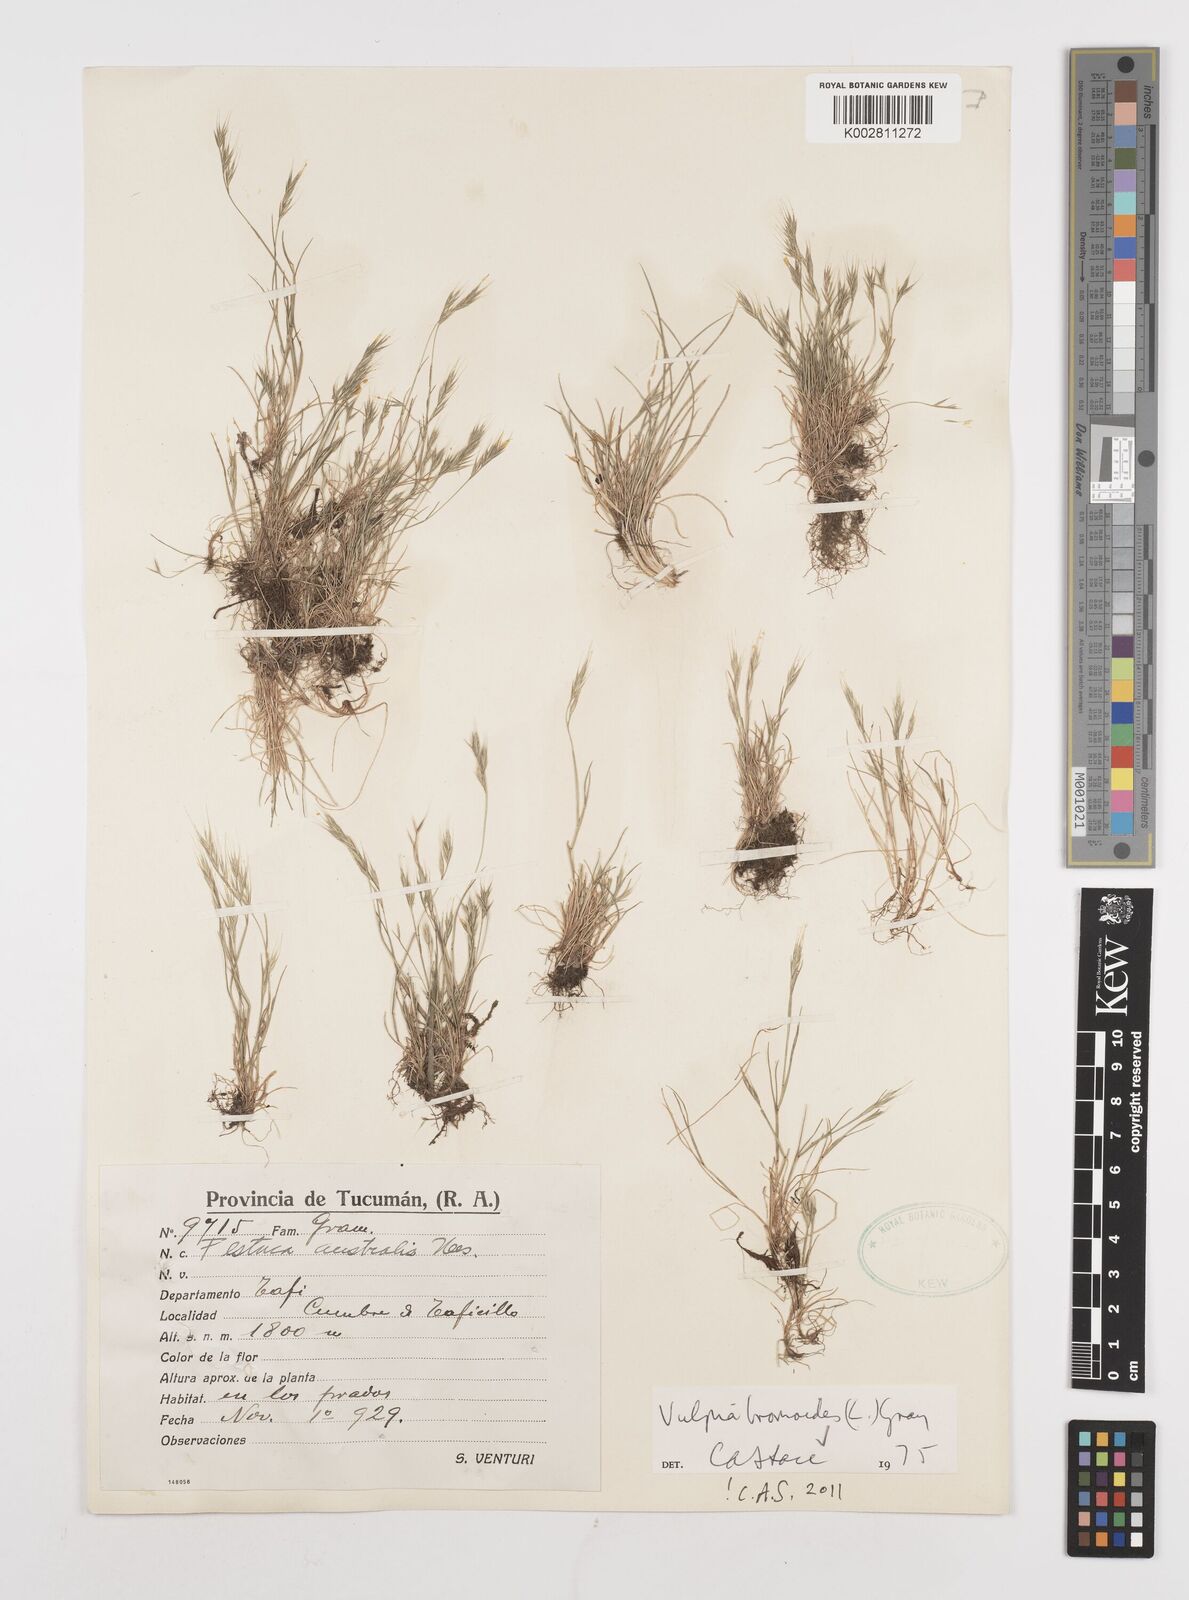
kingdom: Plantae
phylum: Tracheophyta
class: Liliopsida
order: Poales
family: Poaceae
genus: Festuca
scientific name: Festuca bromoides
